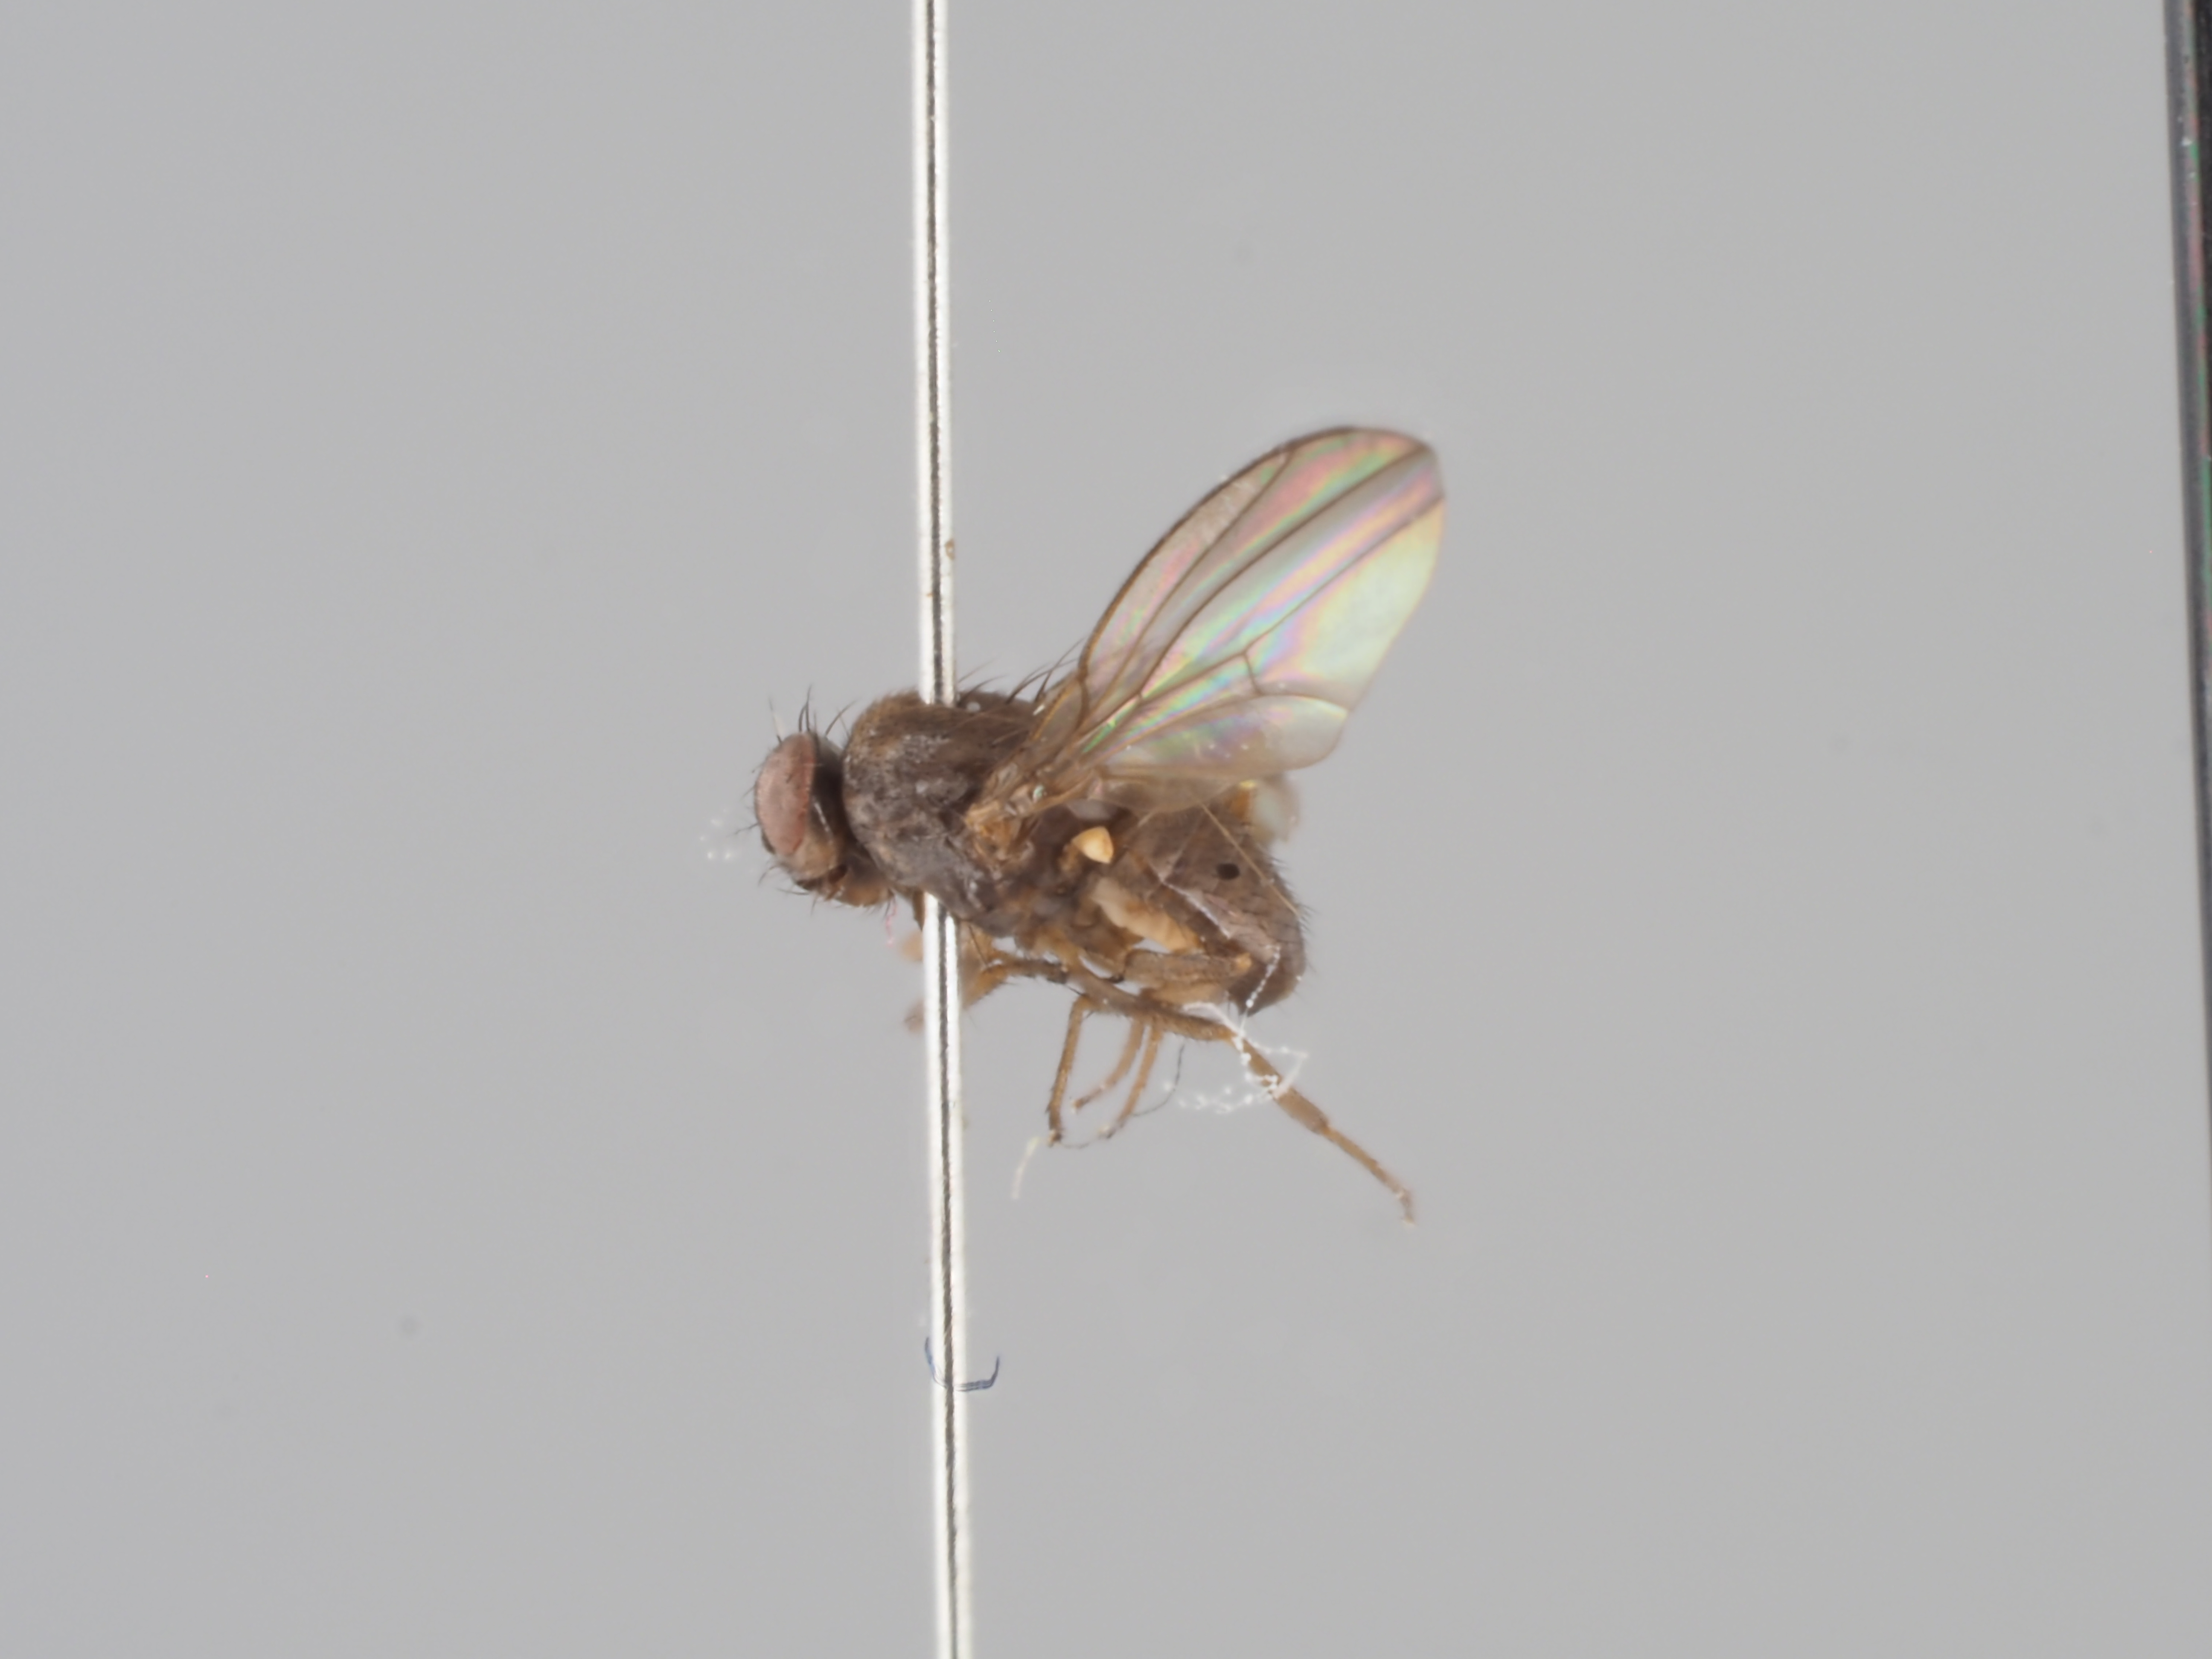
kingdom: Animalia
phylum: Arthropoda
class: Insecta
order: Diptera
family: Drosophilidae
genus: Drosophila
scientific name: Drosophila tristis
